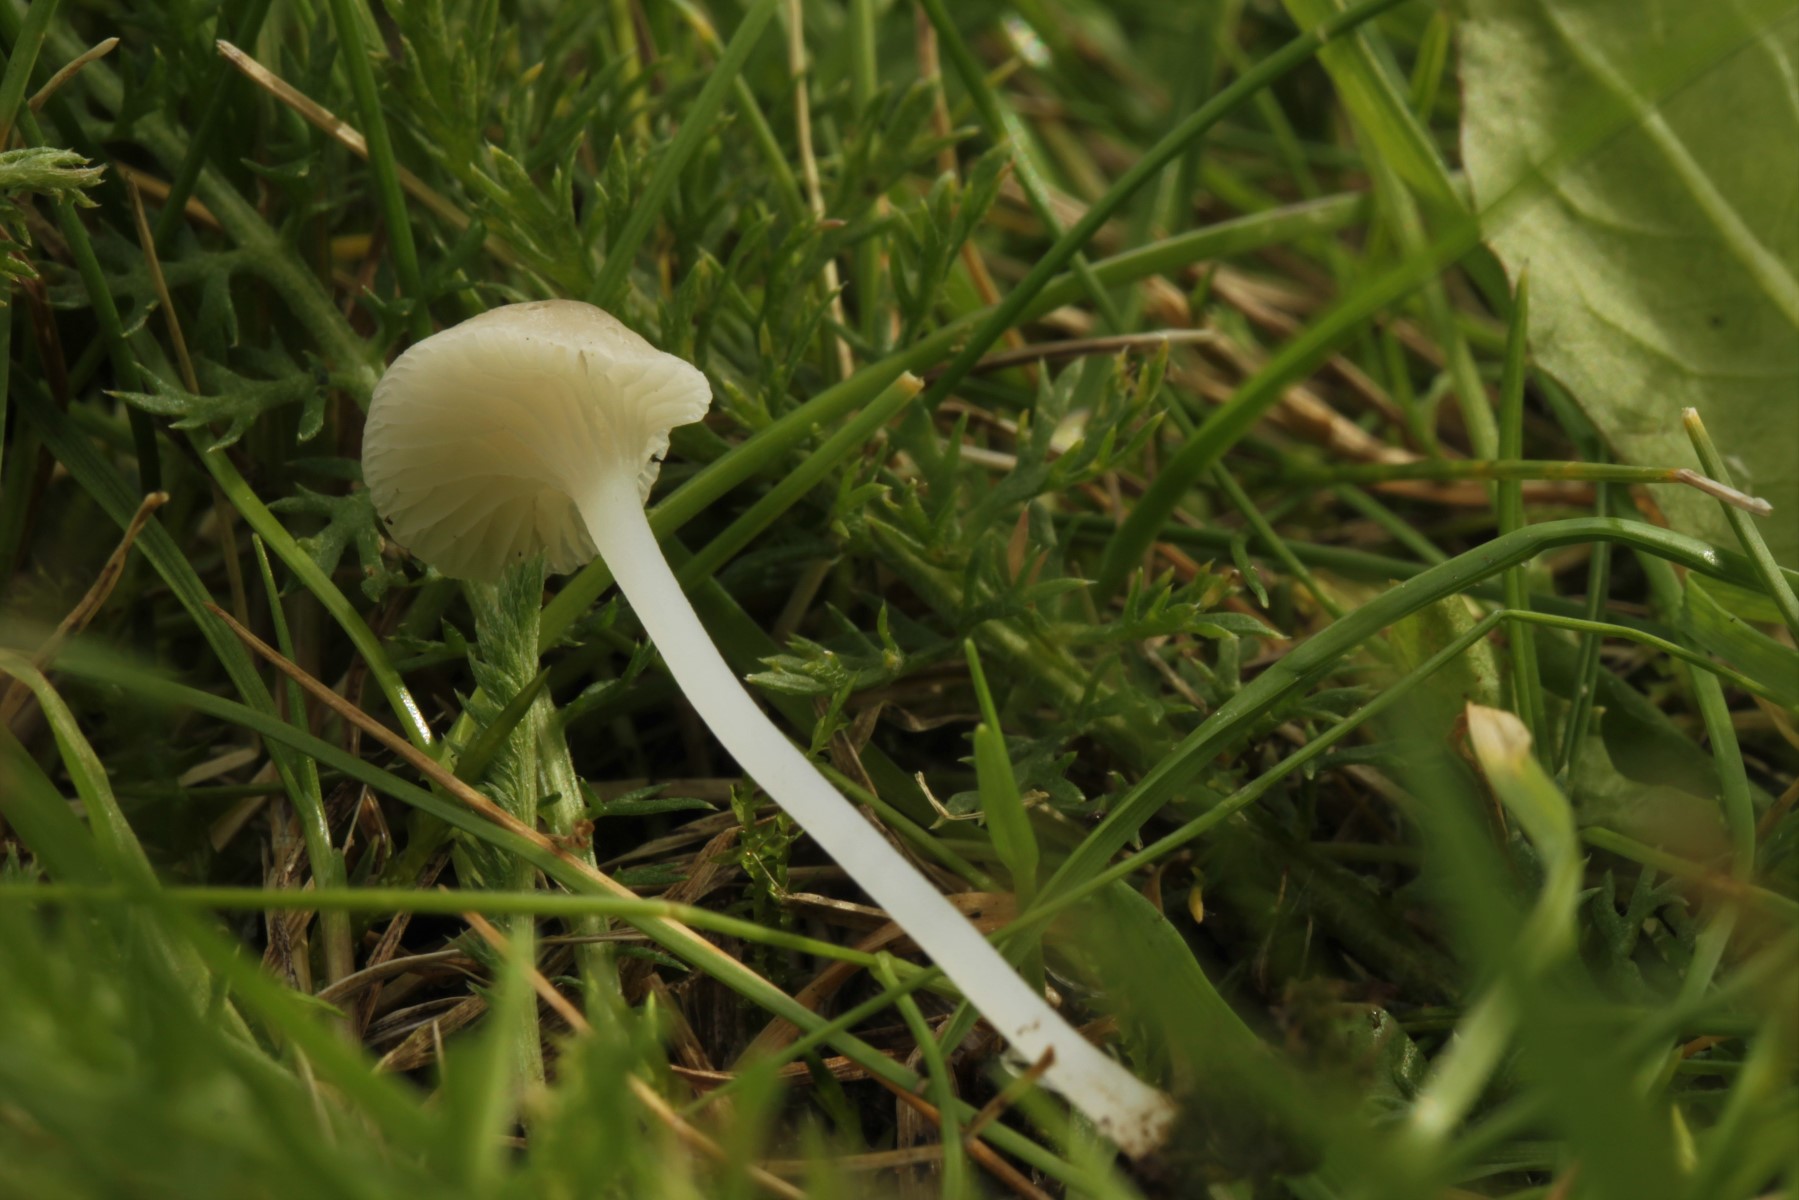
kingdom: Fungi
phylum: Basidiomycota
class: Agaricomycetes
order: Agaricales
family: Mycenaceae
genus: Hemimycena
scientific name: Hemimycena mairei
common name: voks-huesvamp
